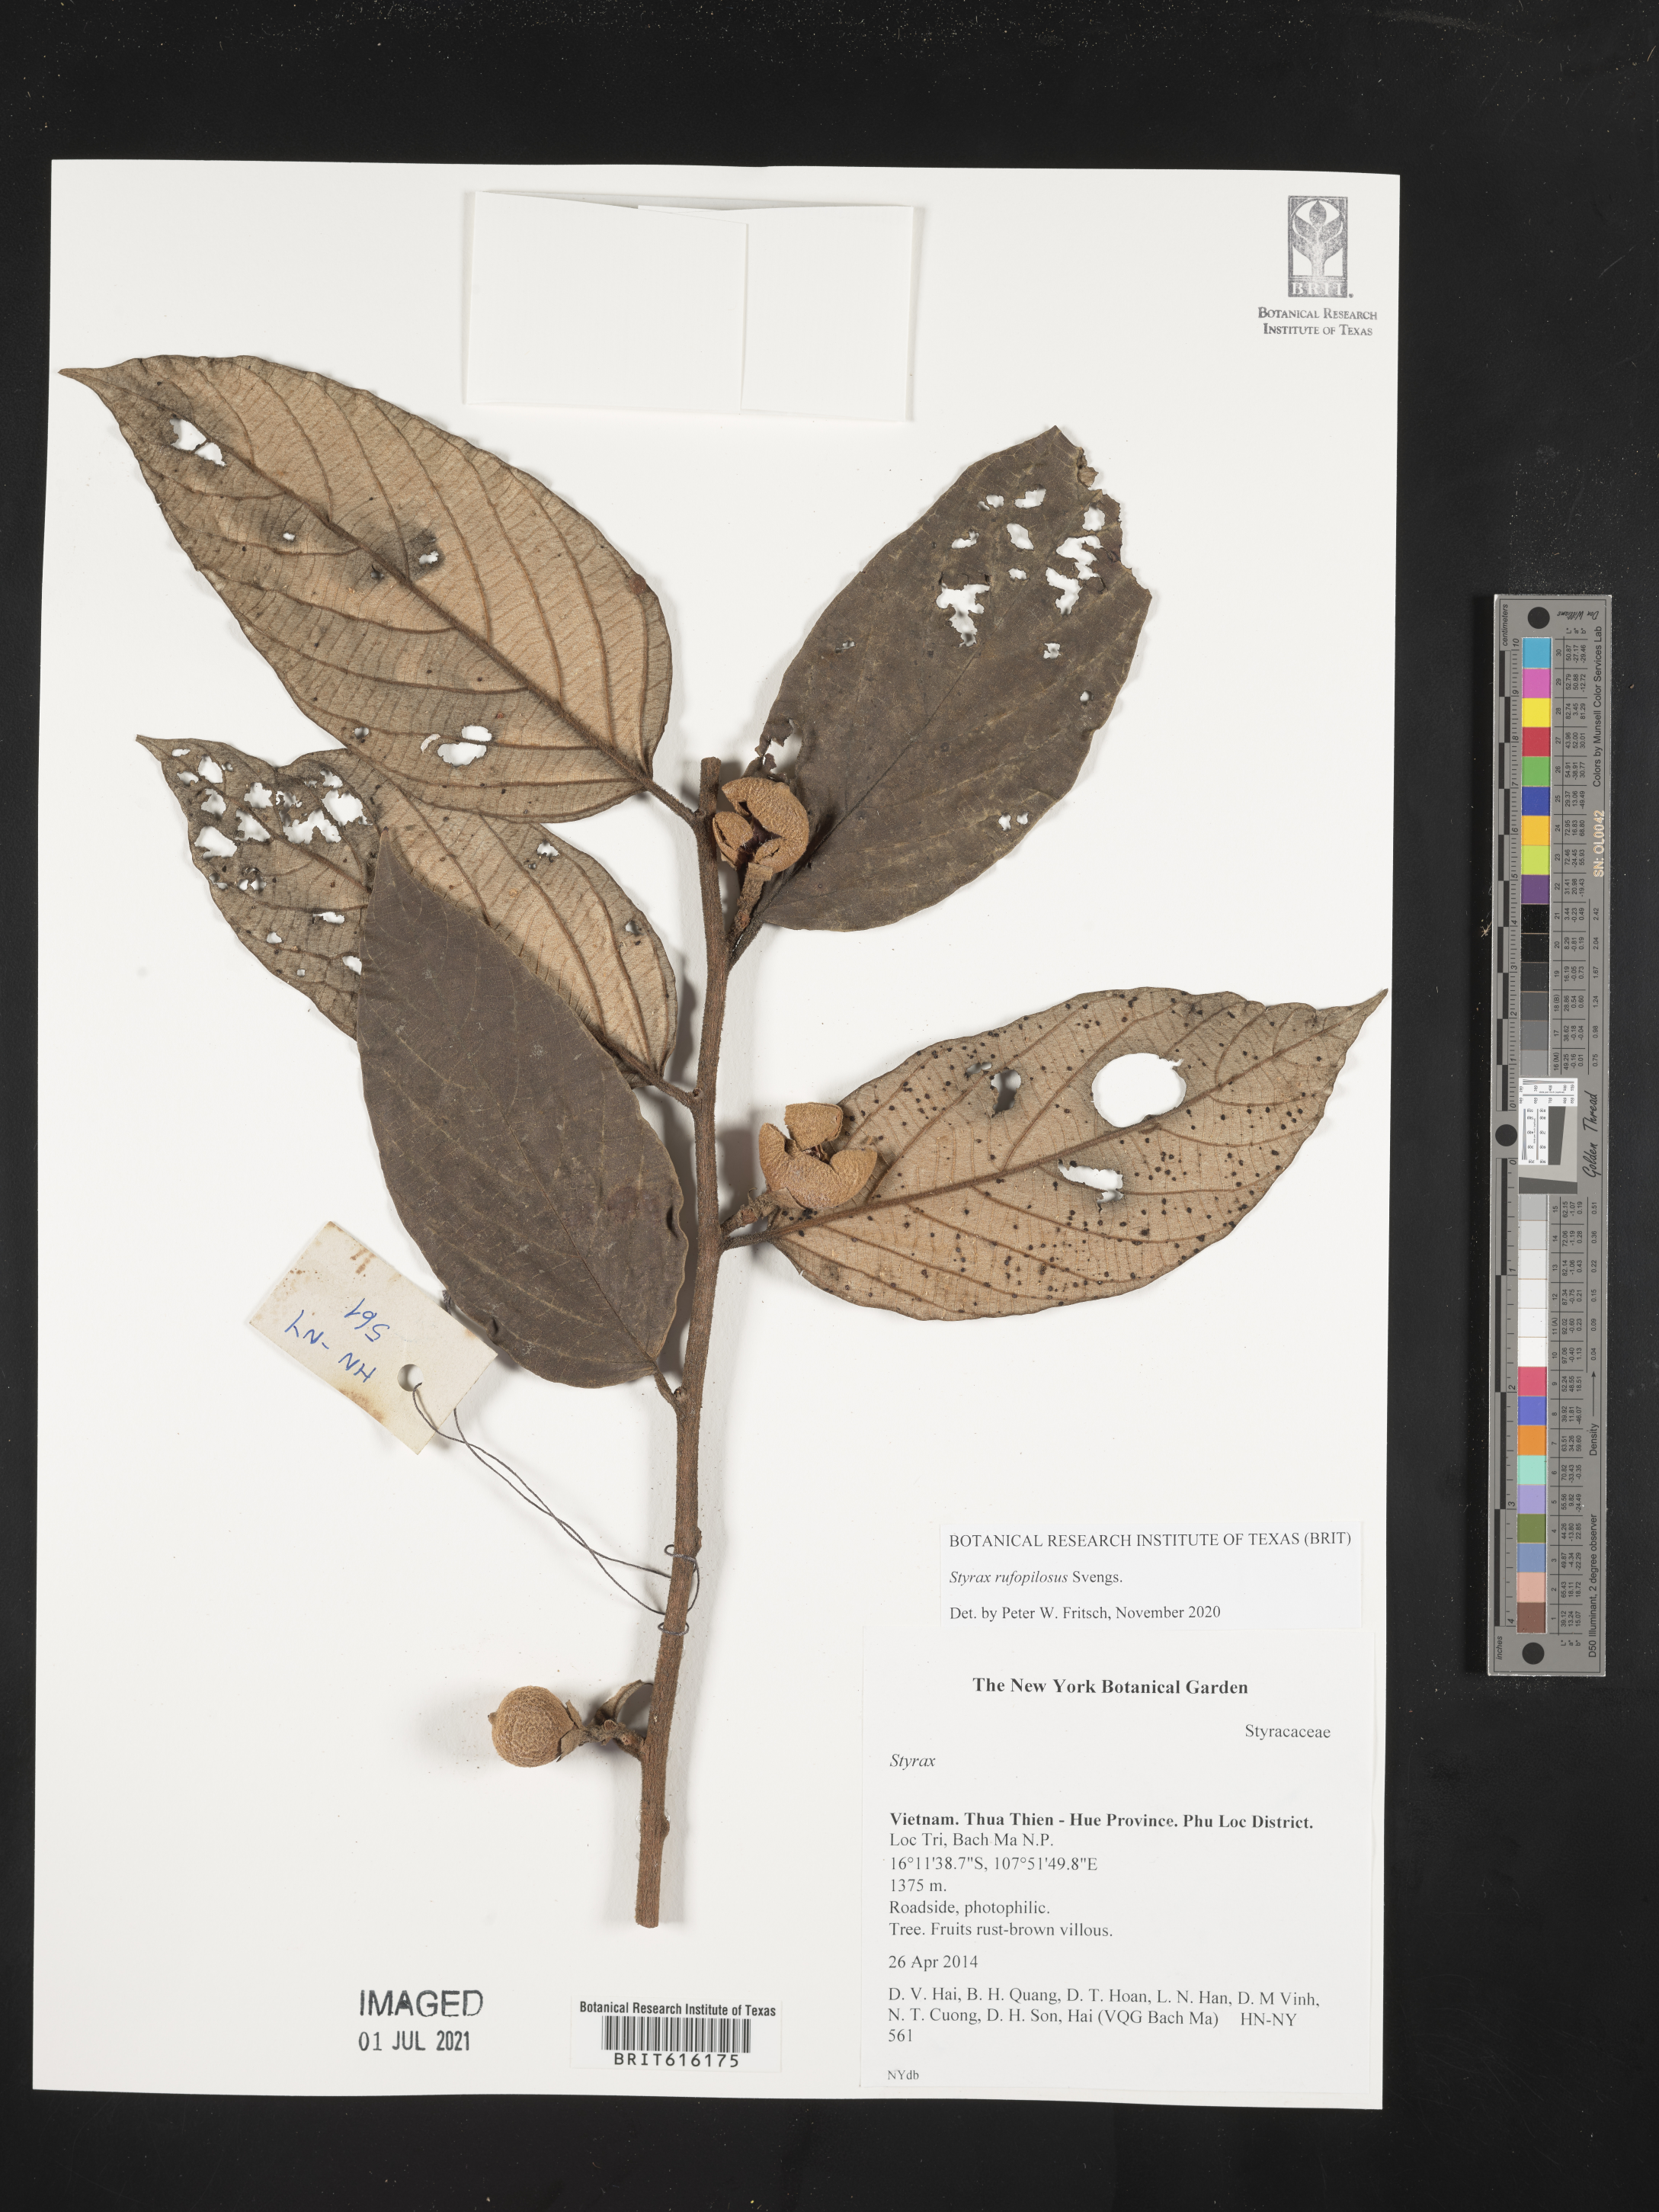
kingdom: Plantae
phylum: Tracheophyta
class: Magnoliopsida
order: Ericales
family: Styracaceae
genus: Styrax
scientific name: Styrax rufopilosus
